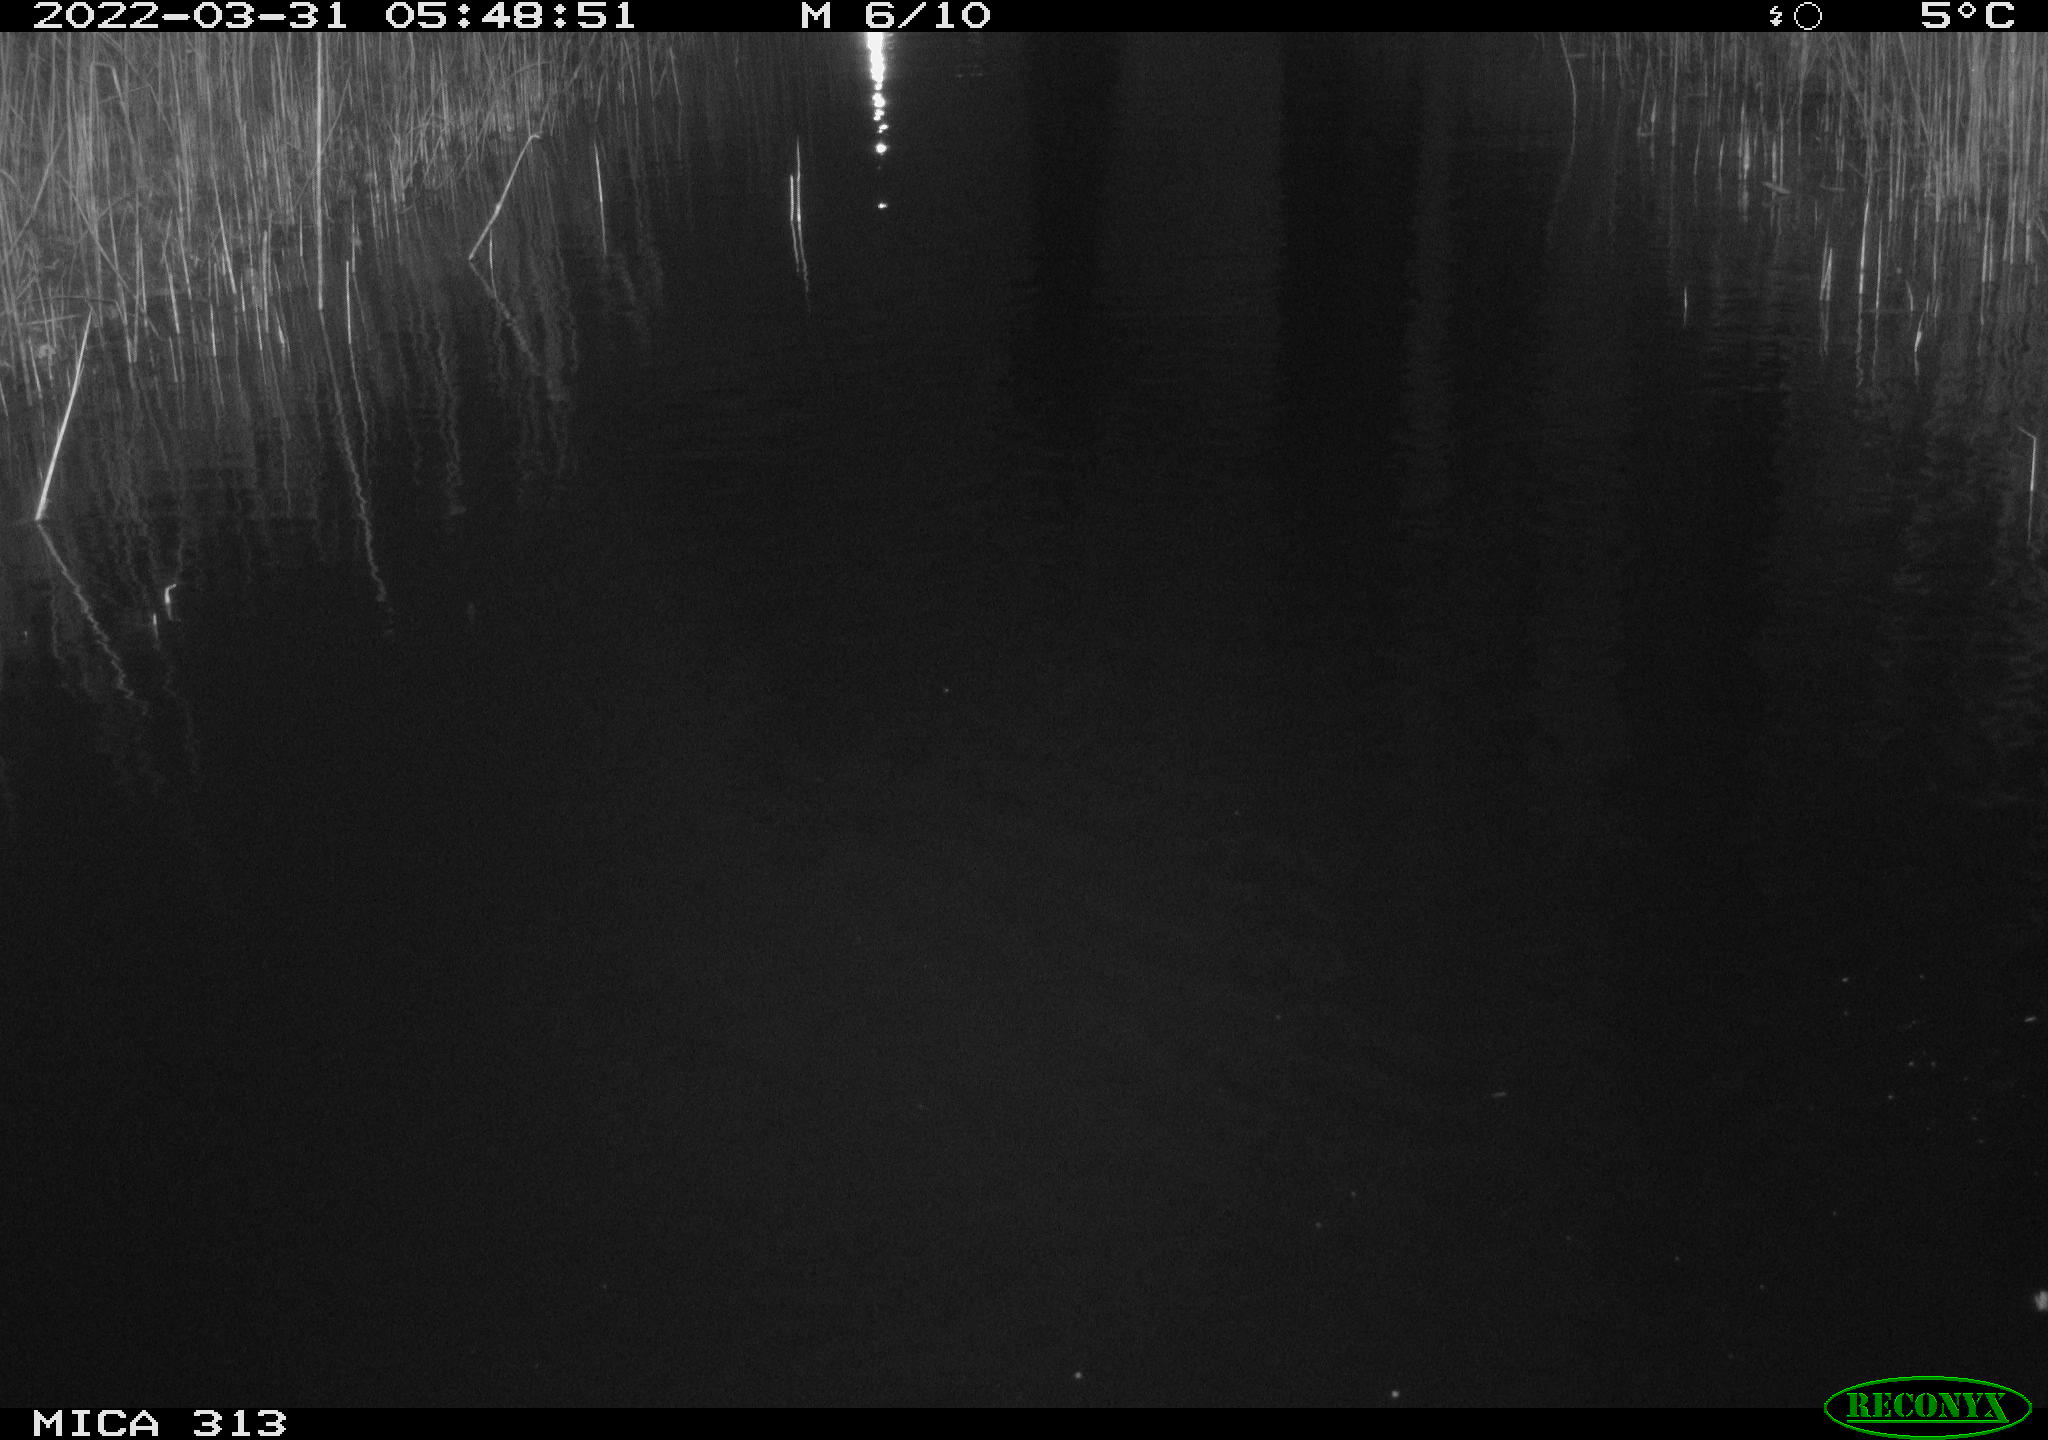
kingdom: Animalia
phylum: Chordata
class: Aves
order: Gruiformes
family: Rallidae
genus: Gallinula
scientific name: Gallinula chloropus
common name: Common moorhen
